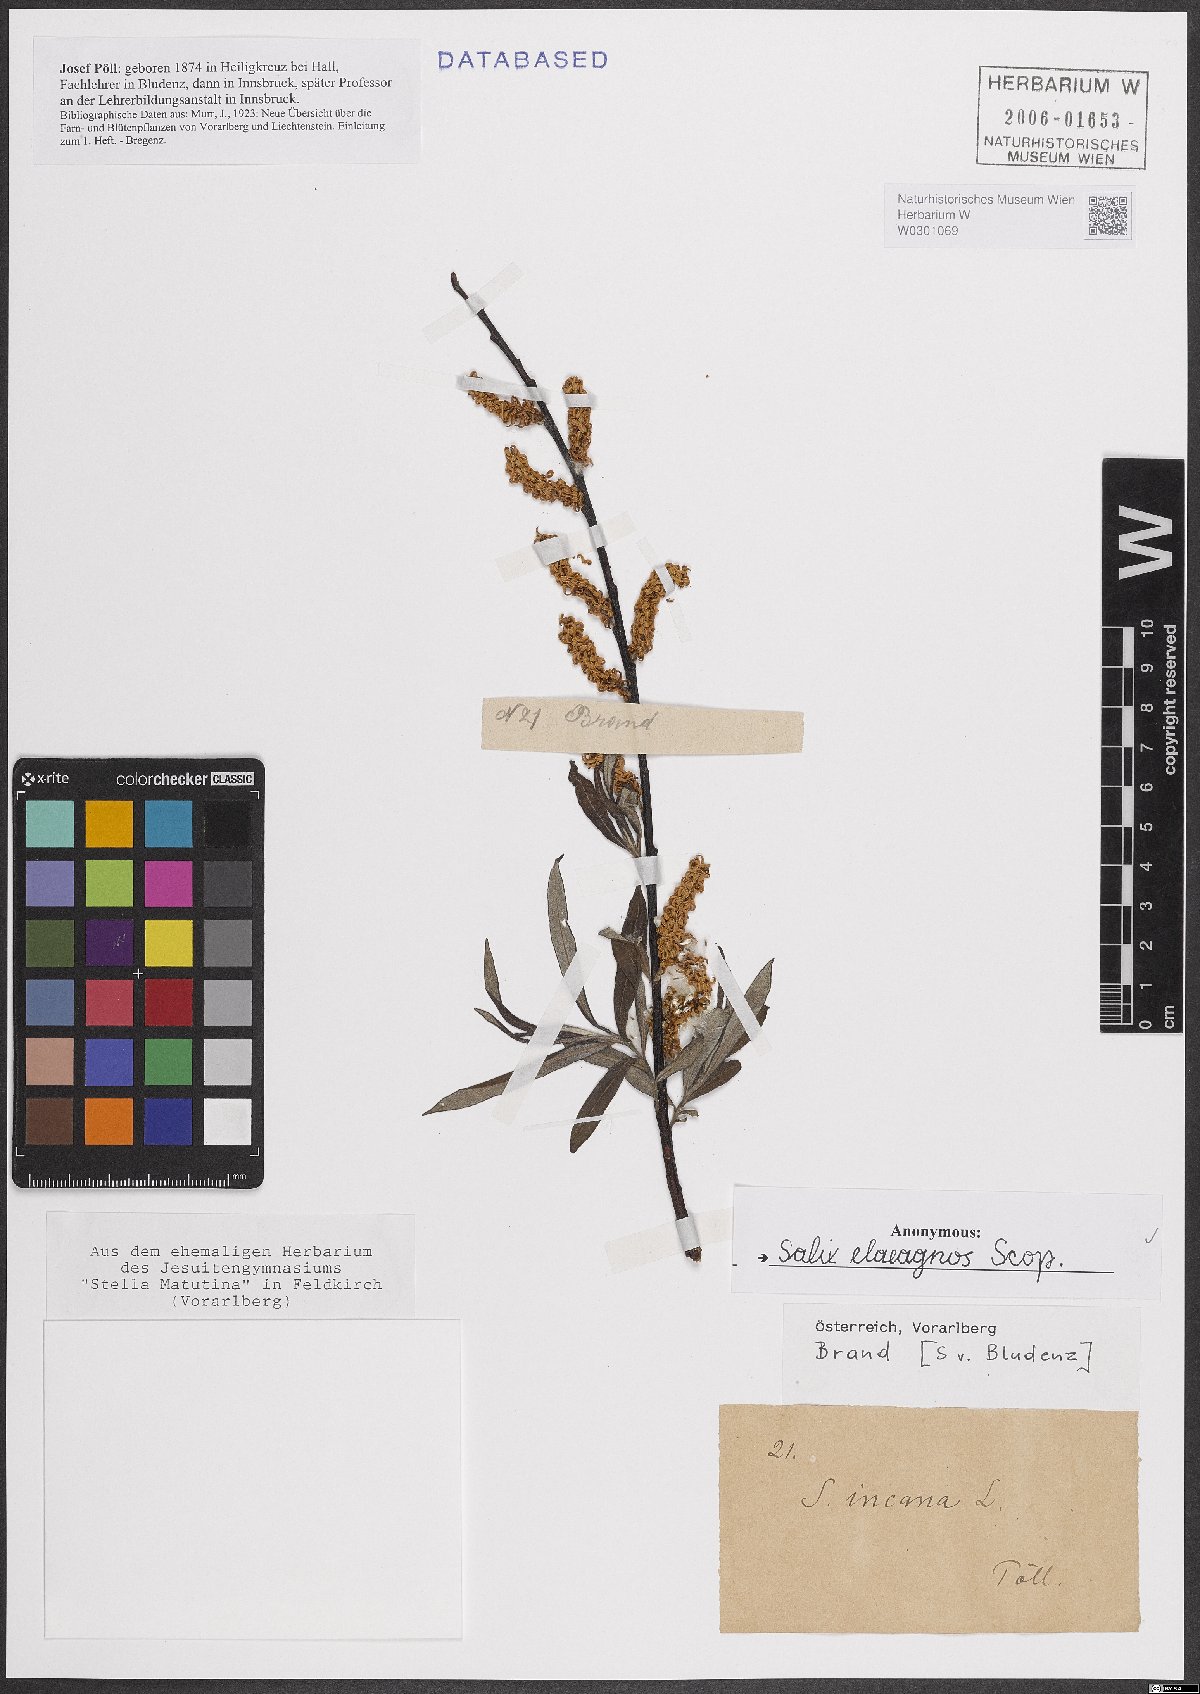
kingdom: Plantae
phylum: Tracheophyta
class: Magnoliopsida
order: Malpighiales
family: Salicaceae
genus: Salix
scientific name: Salix eleagnos
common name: Elaeagnus willow
